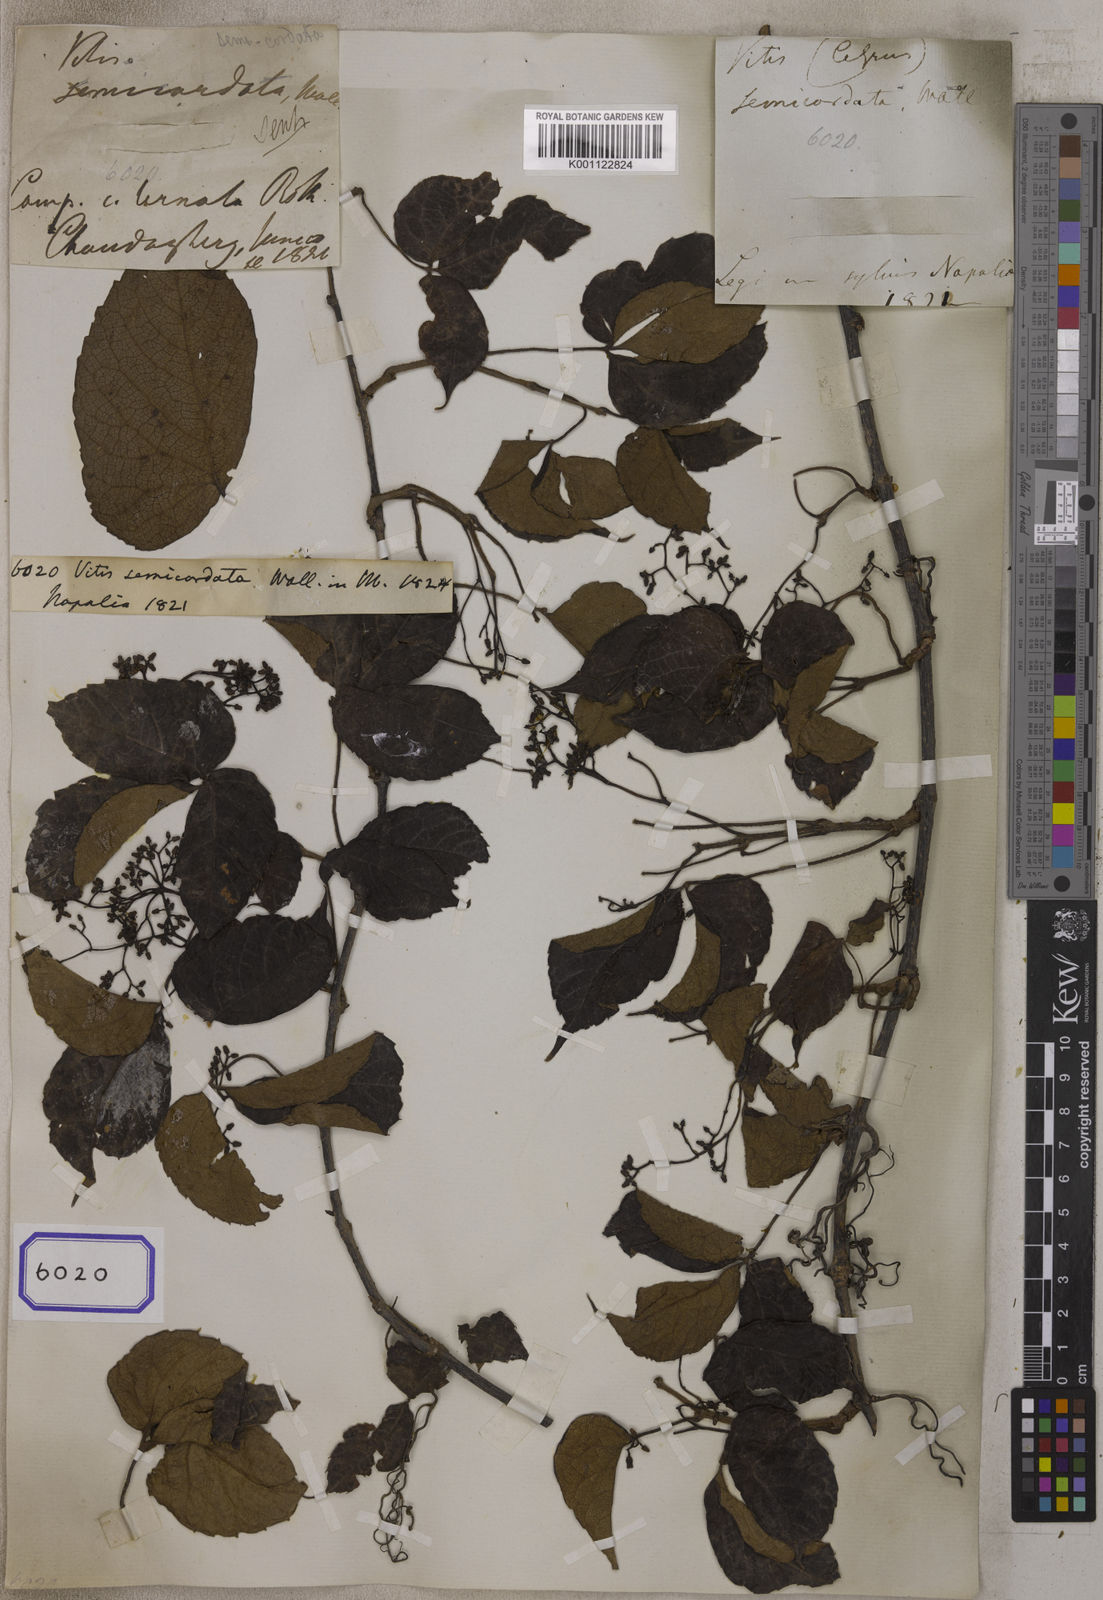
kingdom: Plantae
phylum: Tracheophyta
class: Magnoliopsida
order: Vitales
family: Vitaceae
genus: Parthenocissus
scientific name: Parthenocissus semicordata
